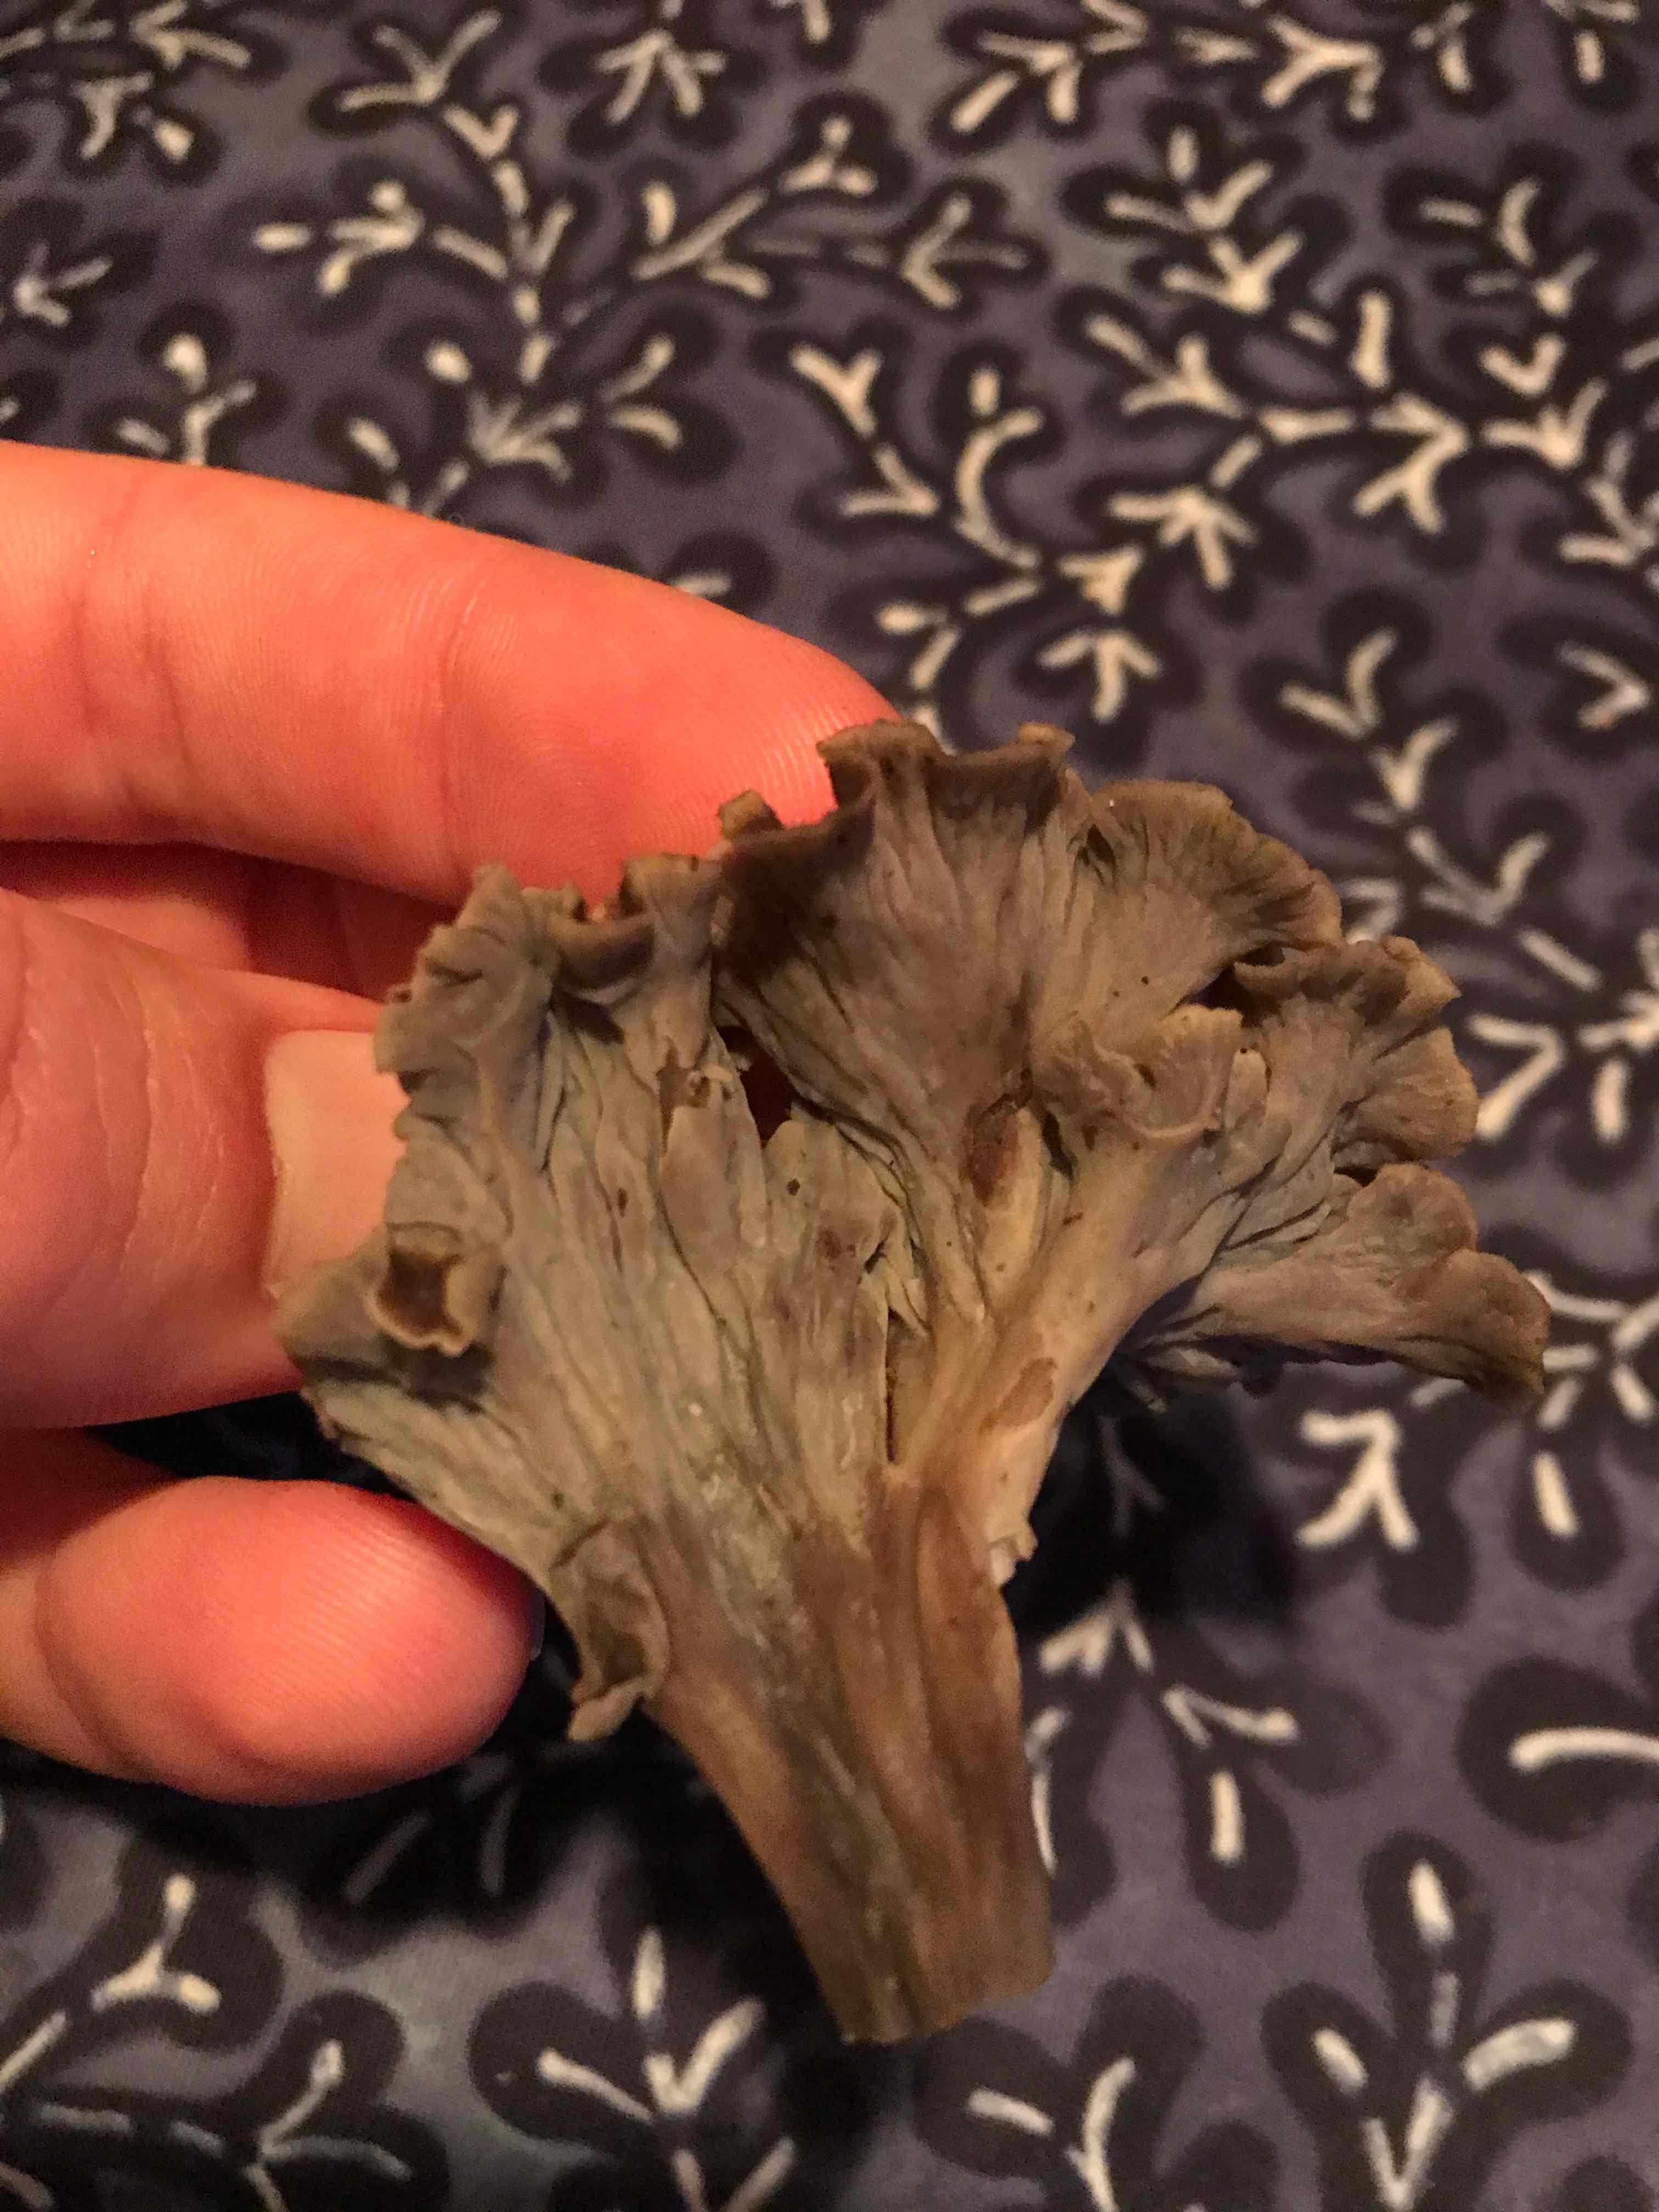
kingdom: Fungi
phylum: Basidiomycota
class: Agaricomycetes
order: Cantharellales
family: Hydnaceae
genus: Craterellus
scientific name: Craterellus undulatus
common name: liden kantarel
